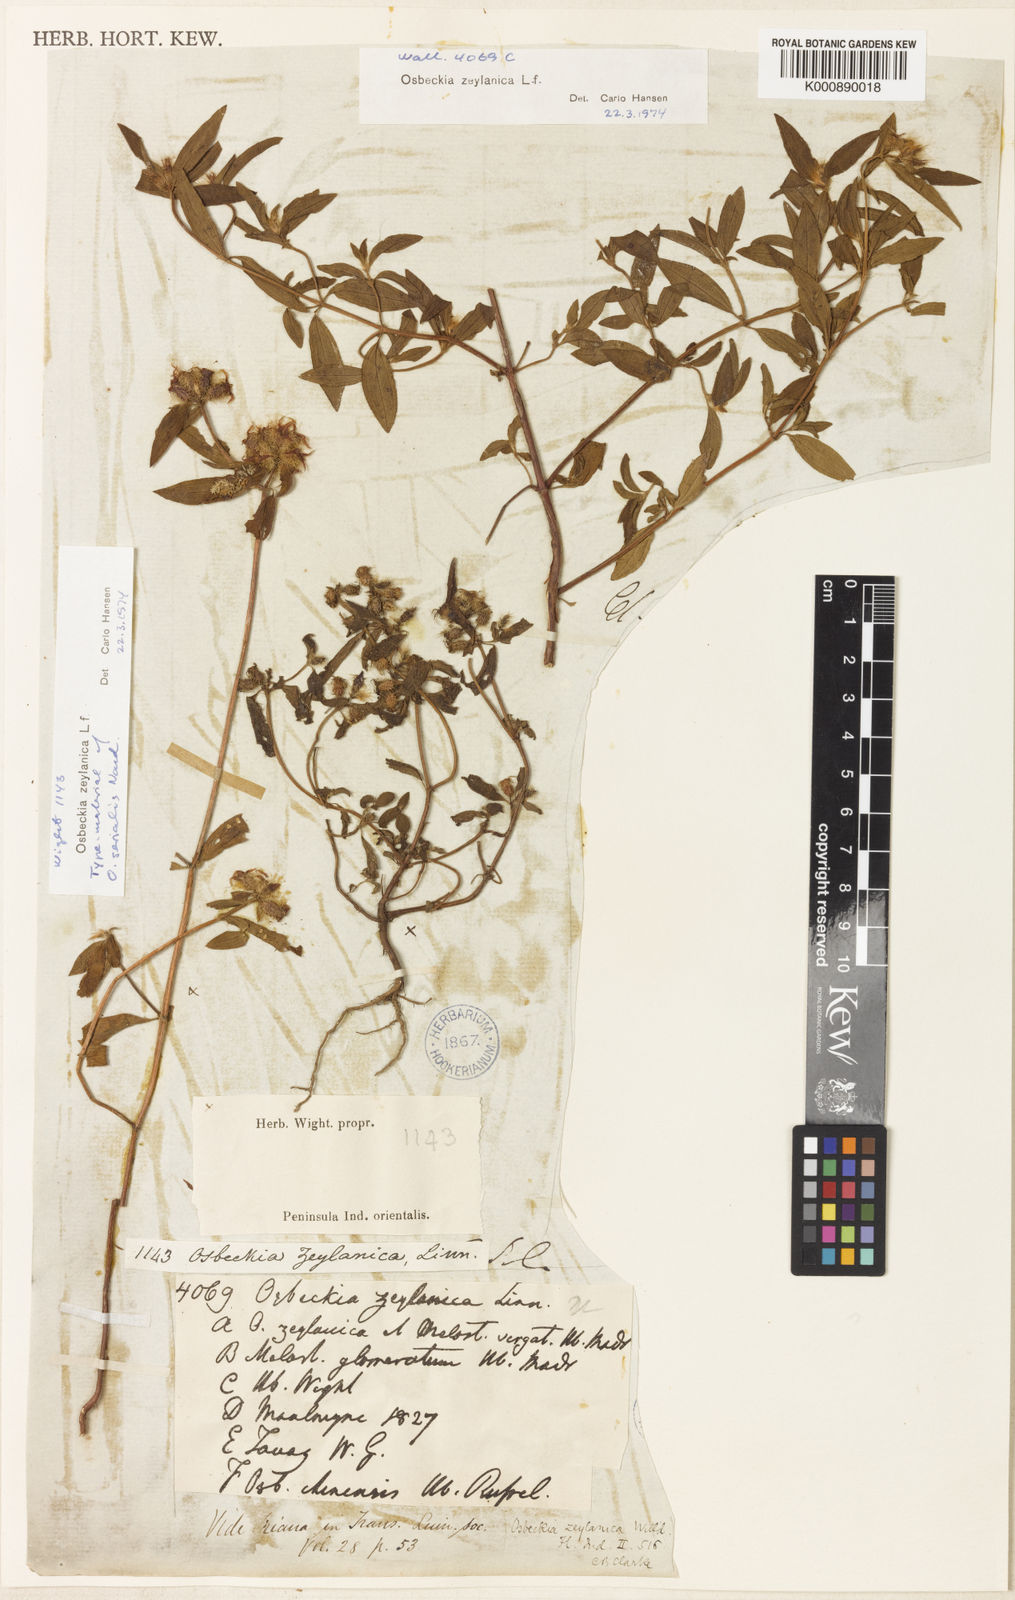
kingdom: Plantae
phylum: Tracheophyta
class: Magnoliopsida
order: Myrtales
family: Melastomataceae
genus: Osbeckia
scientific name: Osbeckia zeylanica
